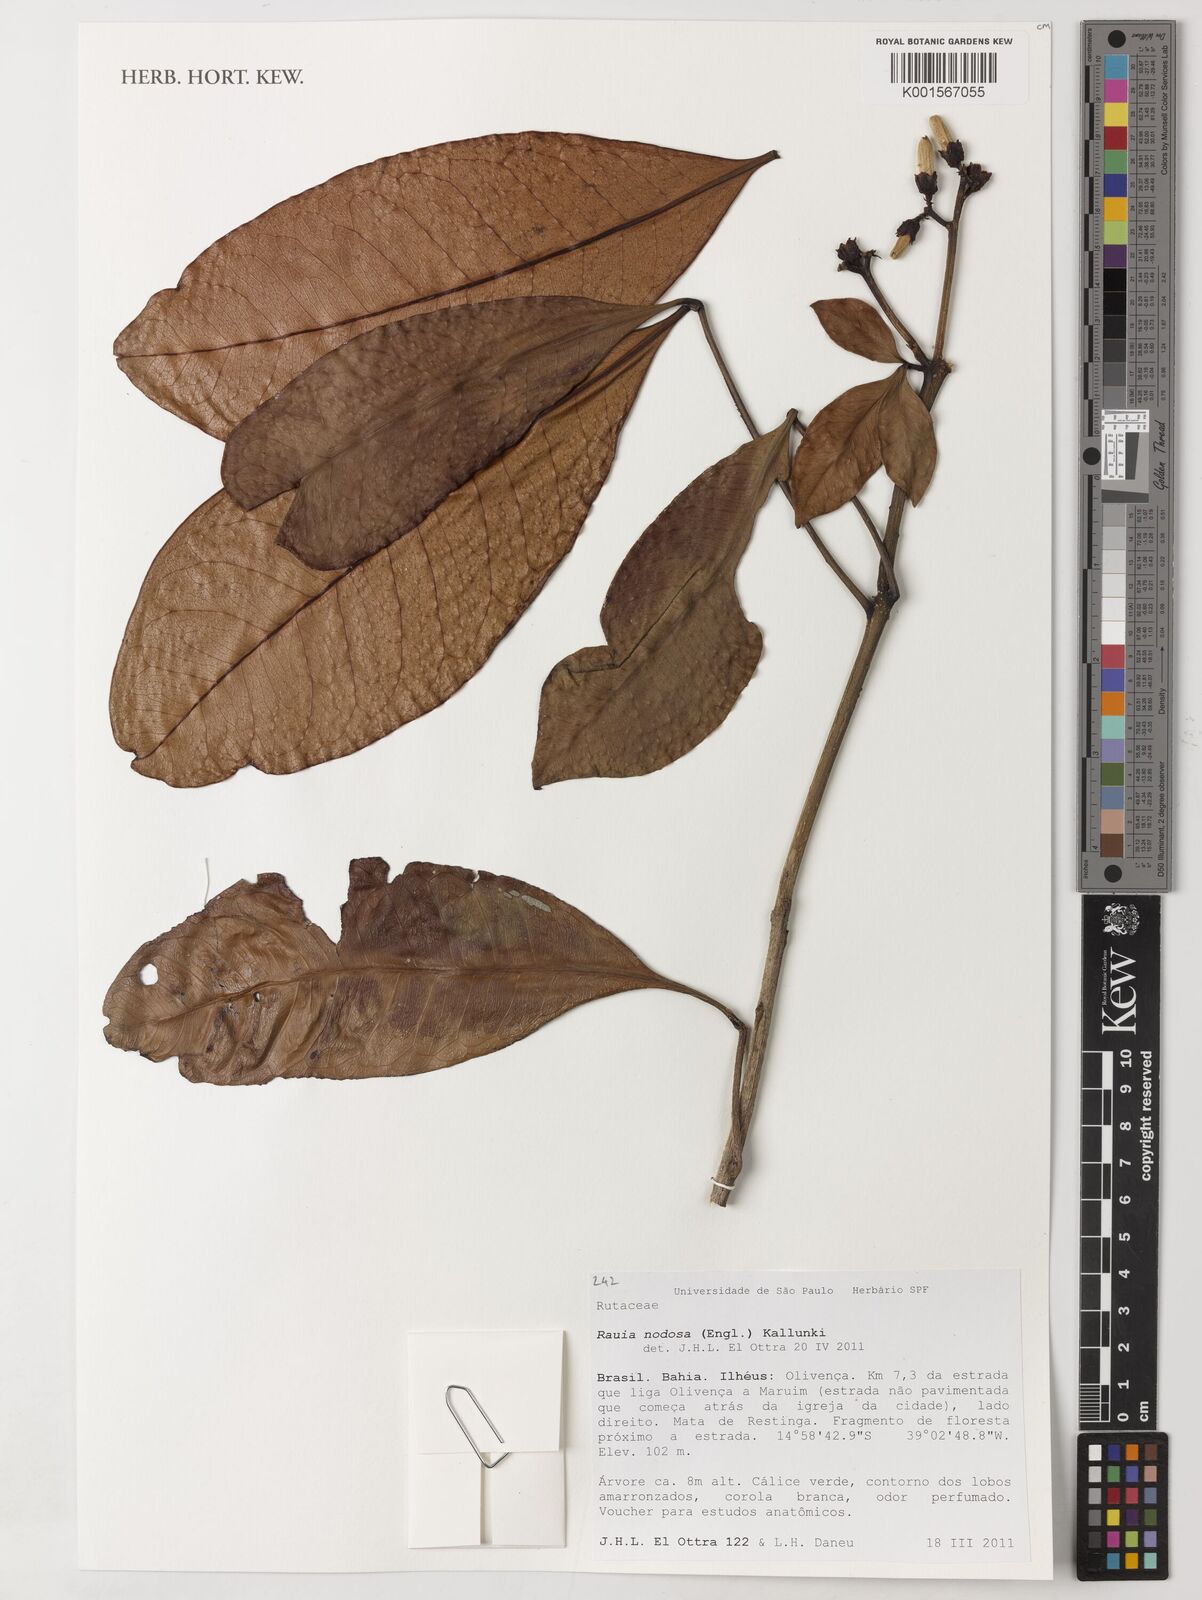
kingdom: Plantae
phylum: Tracheophyta
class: Magnoliopsida
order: Sapindales
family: Rutaceae
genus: Rauia
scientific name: Rauia nodosa
